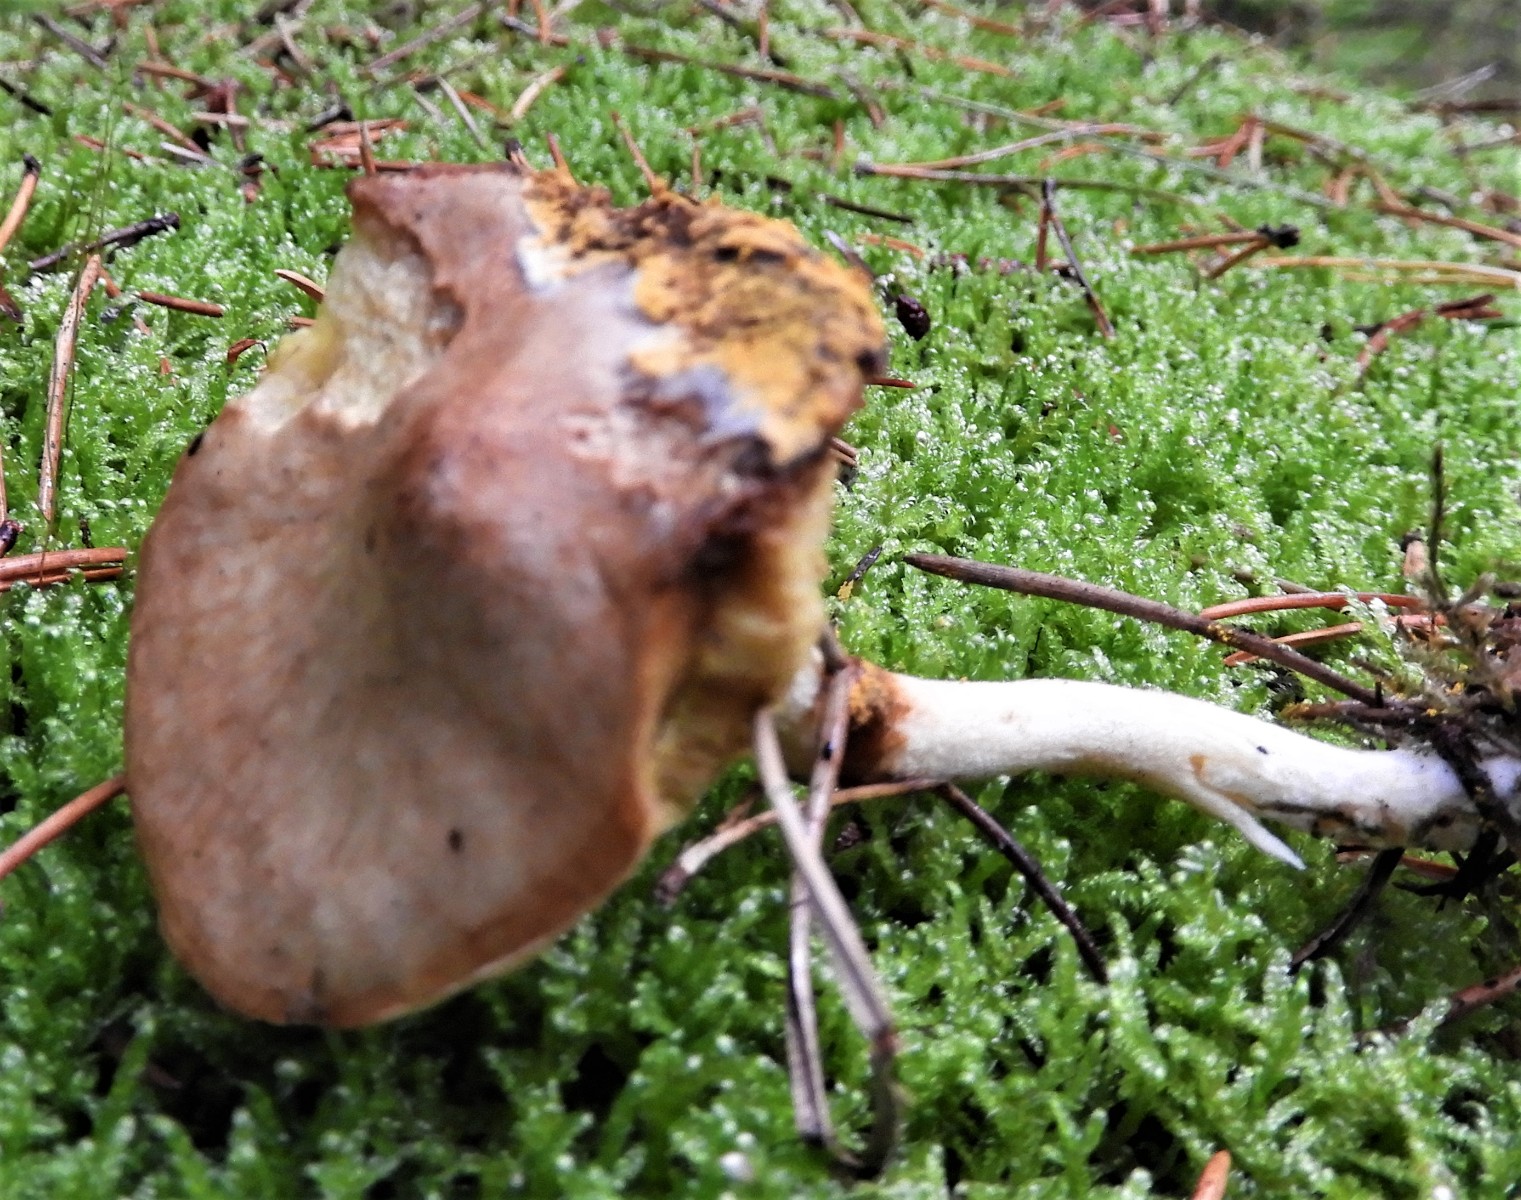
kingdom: Fungi
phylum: Basidiomycota
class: Agaricomycetes
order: Boletales
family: Suillaceae
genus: Suillus
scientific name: Suillus flavidus
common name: mose-slimrørhat
